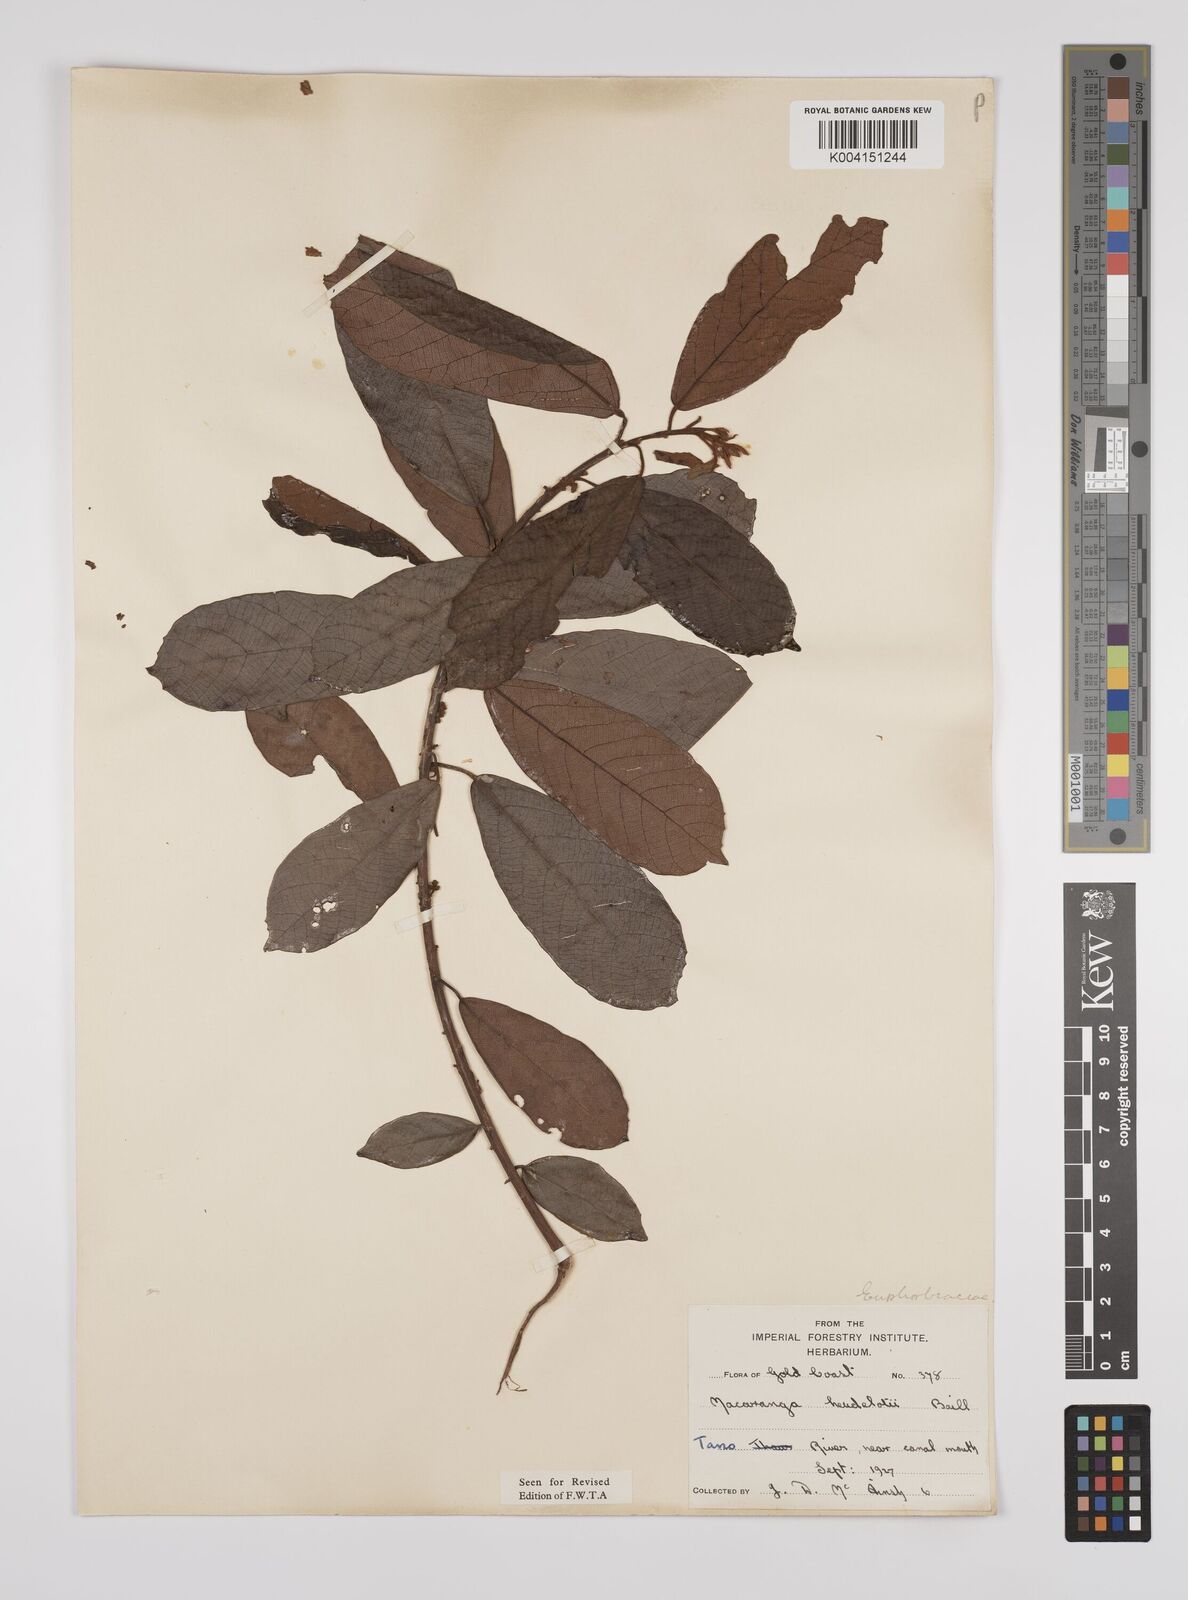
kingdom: Plantae
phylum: Tracheophyta
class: Magnoliopsida
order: Malpighiales
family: Euphorbiaceae
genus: Macaranga
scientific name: Macaranga heudelotii
